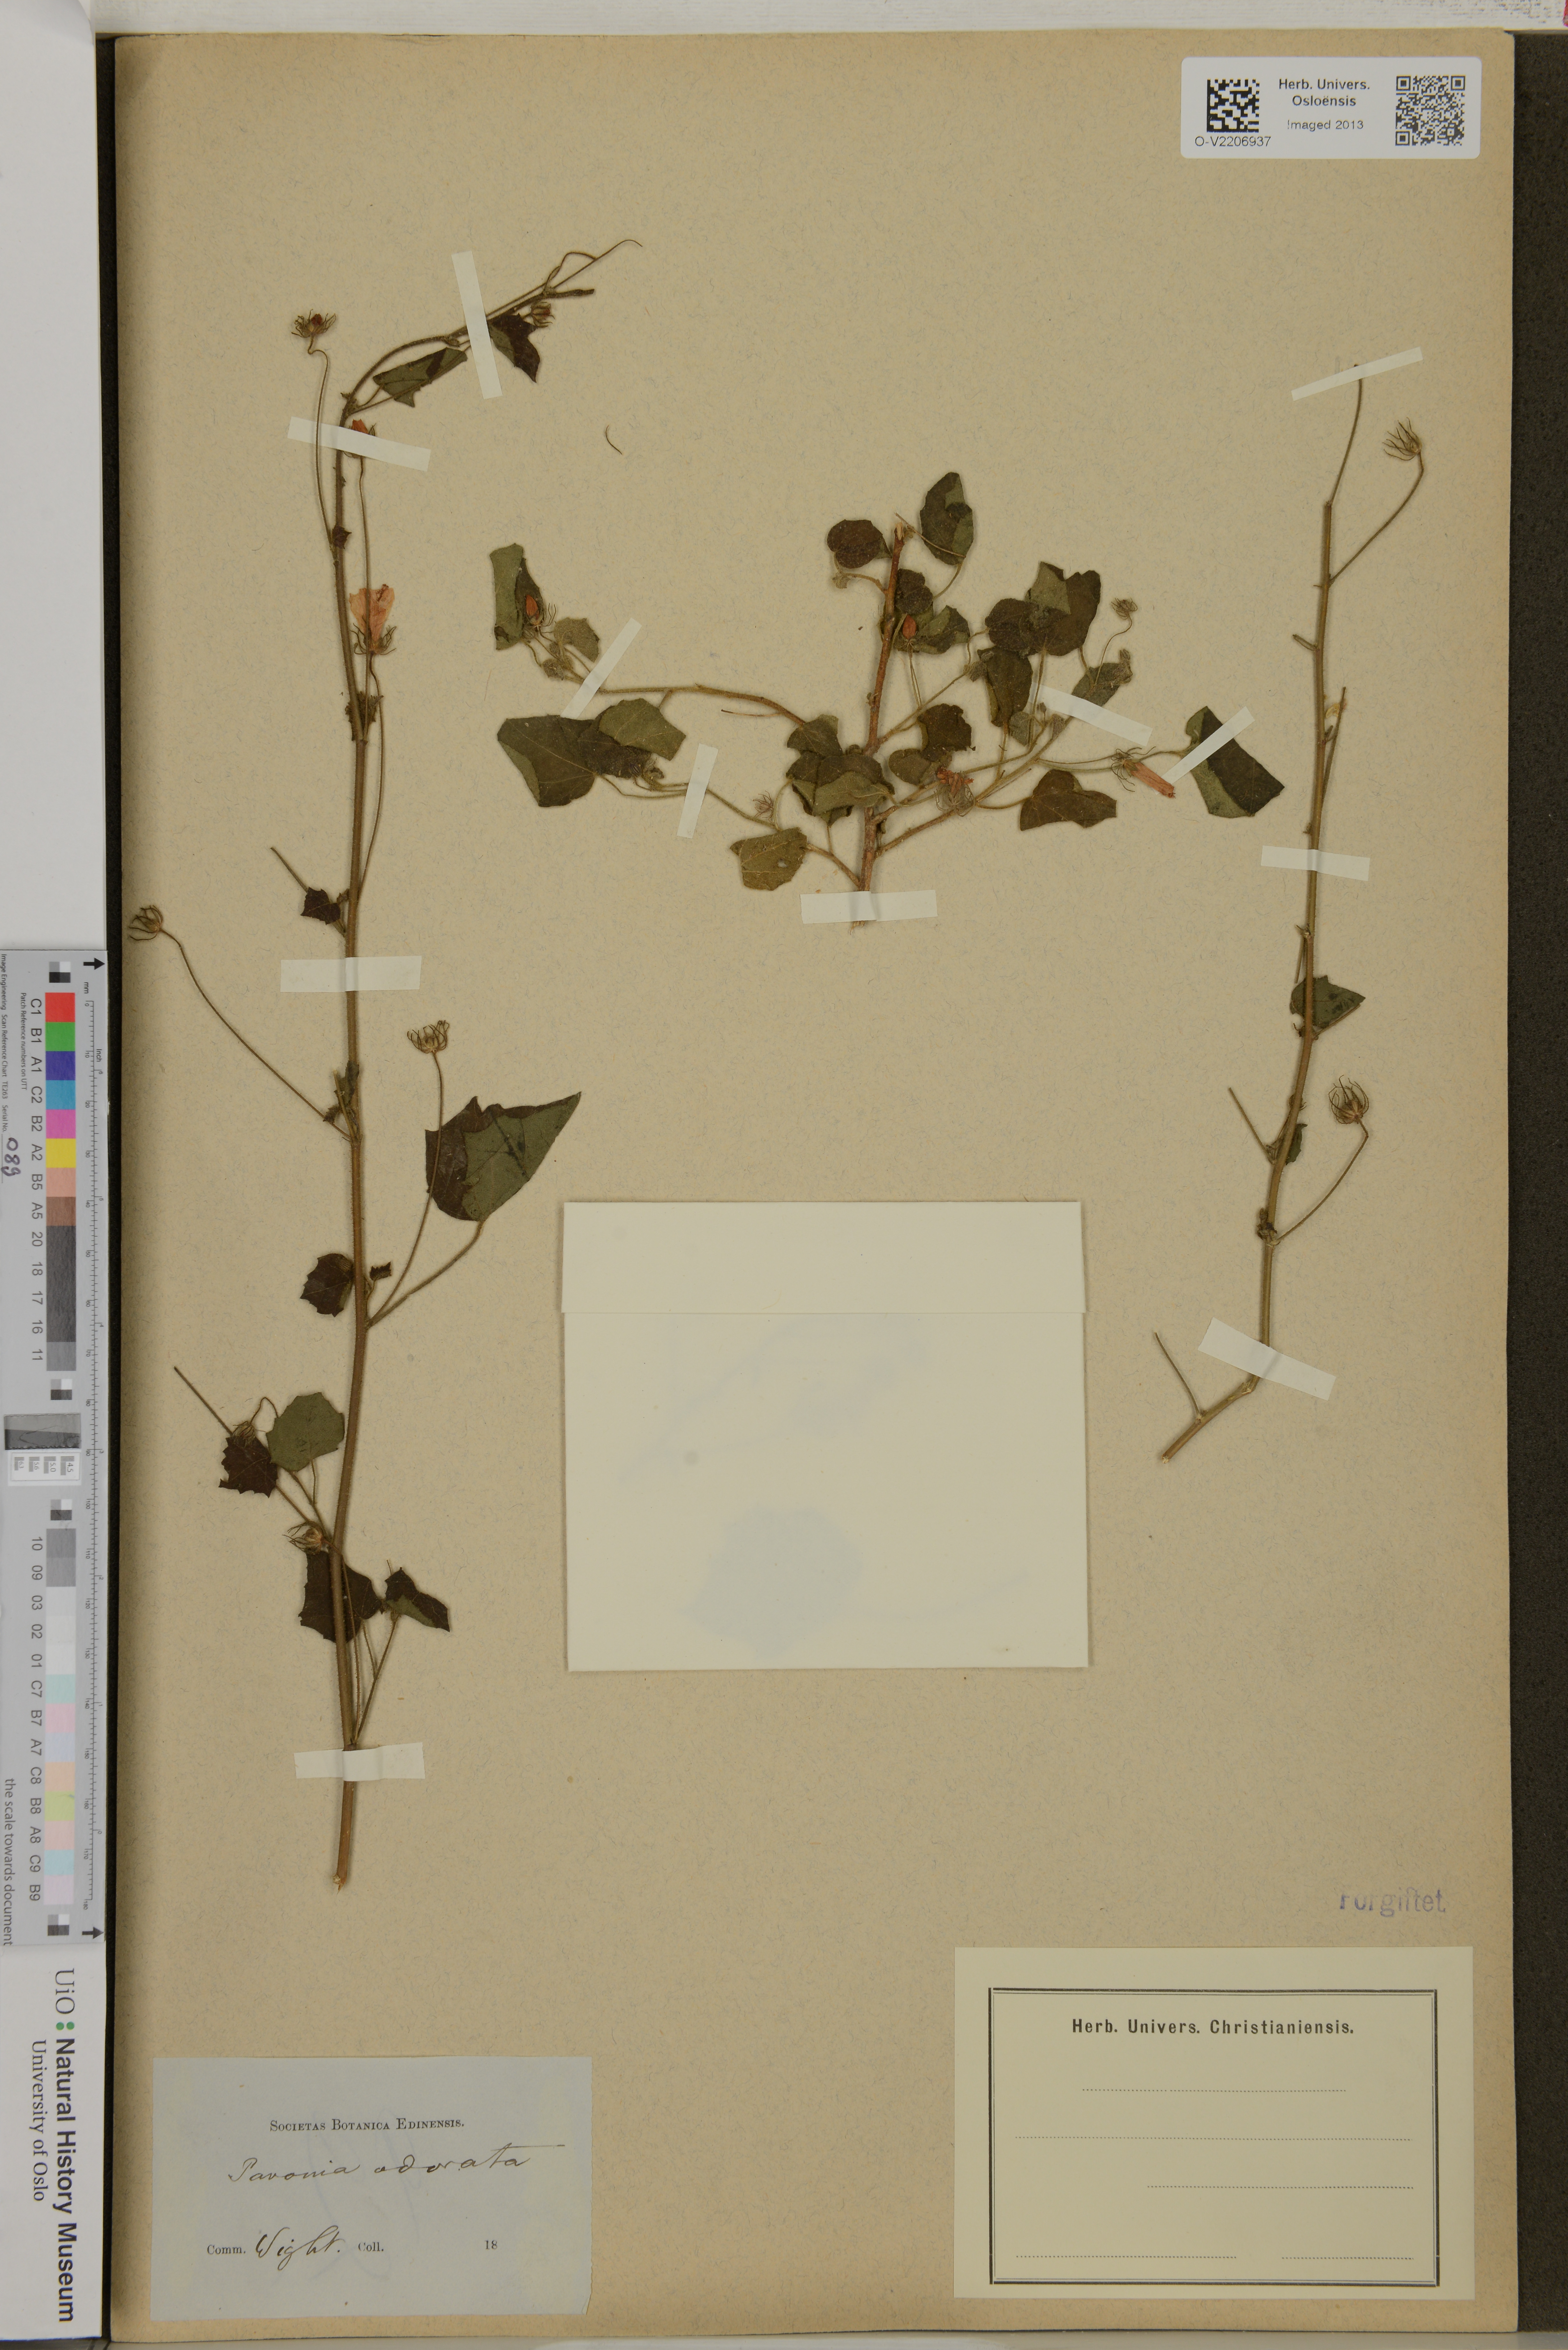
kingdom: Plantae
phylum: Tracheophyta
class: Magnoliopsida
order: Malvales
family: Malvaceae
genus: Pavonia
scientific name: Pavonia zeylonica
